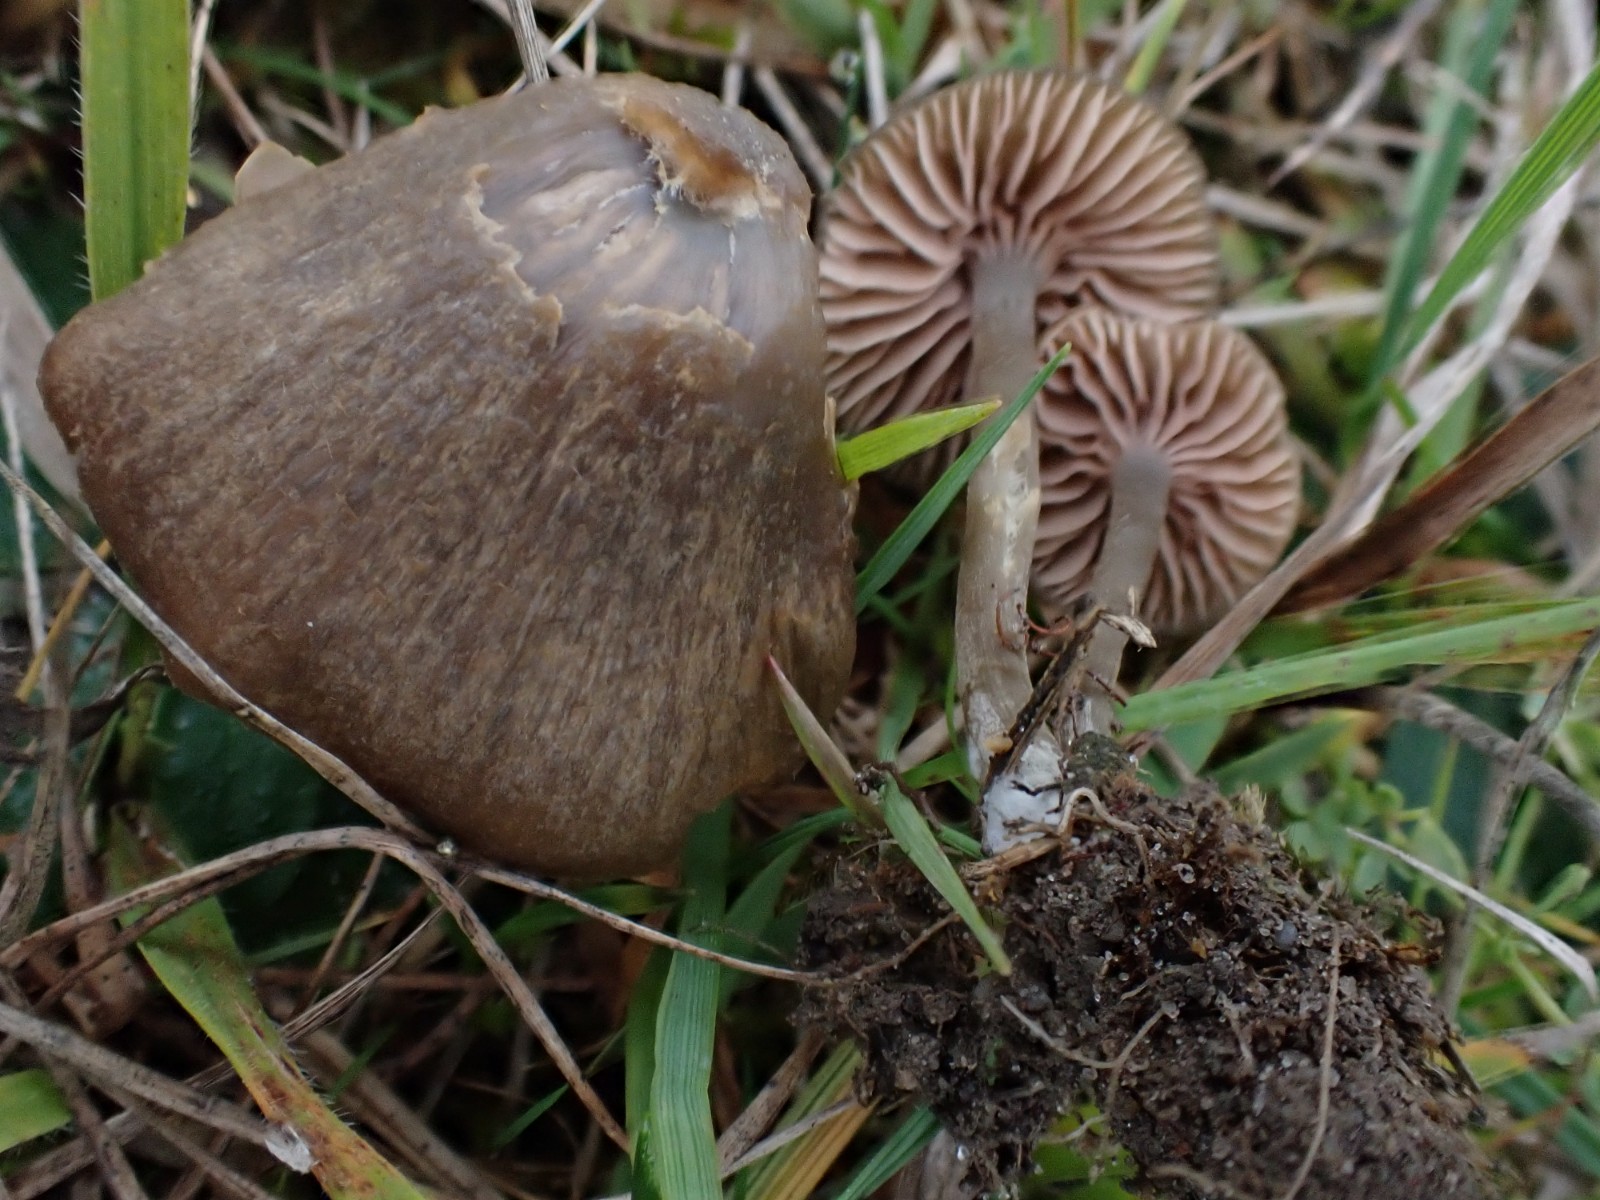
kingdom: Fungi
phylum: Basidiomycota
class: Agaricomycetes
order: Agaricales
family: Entolomataceae
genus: Entoloma
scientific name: Entoloma
